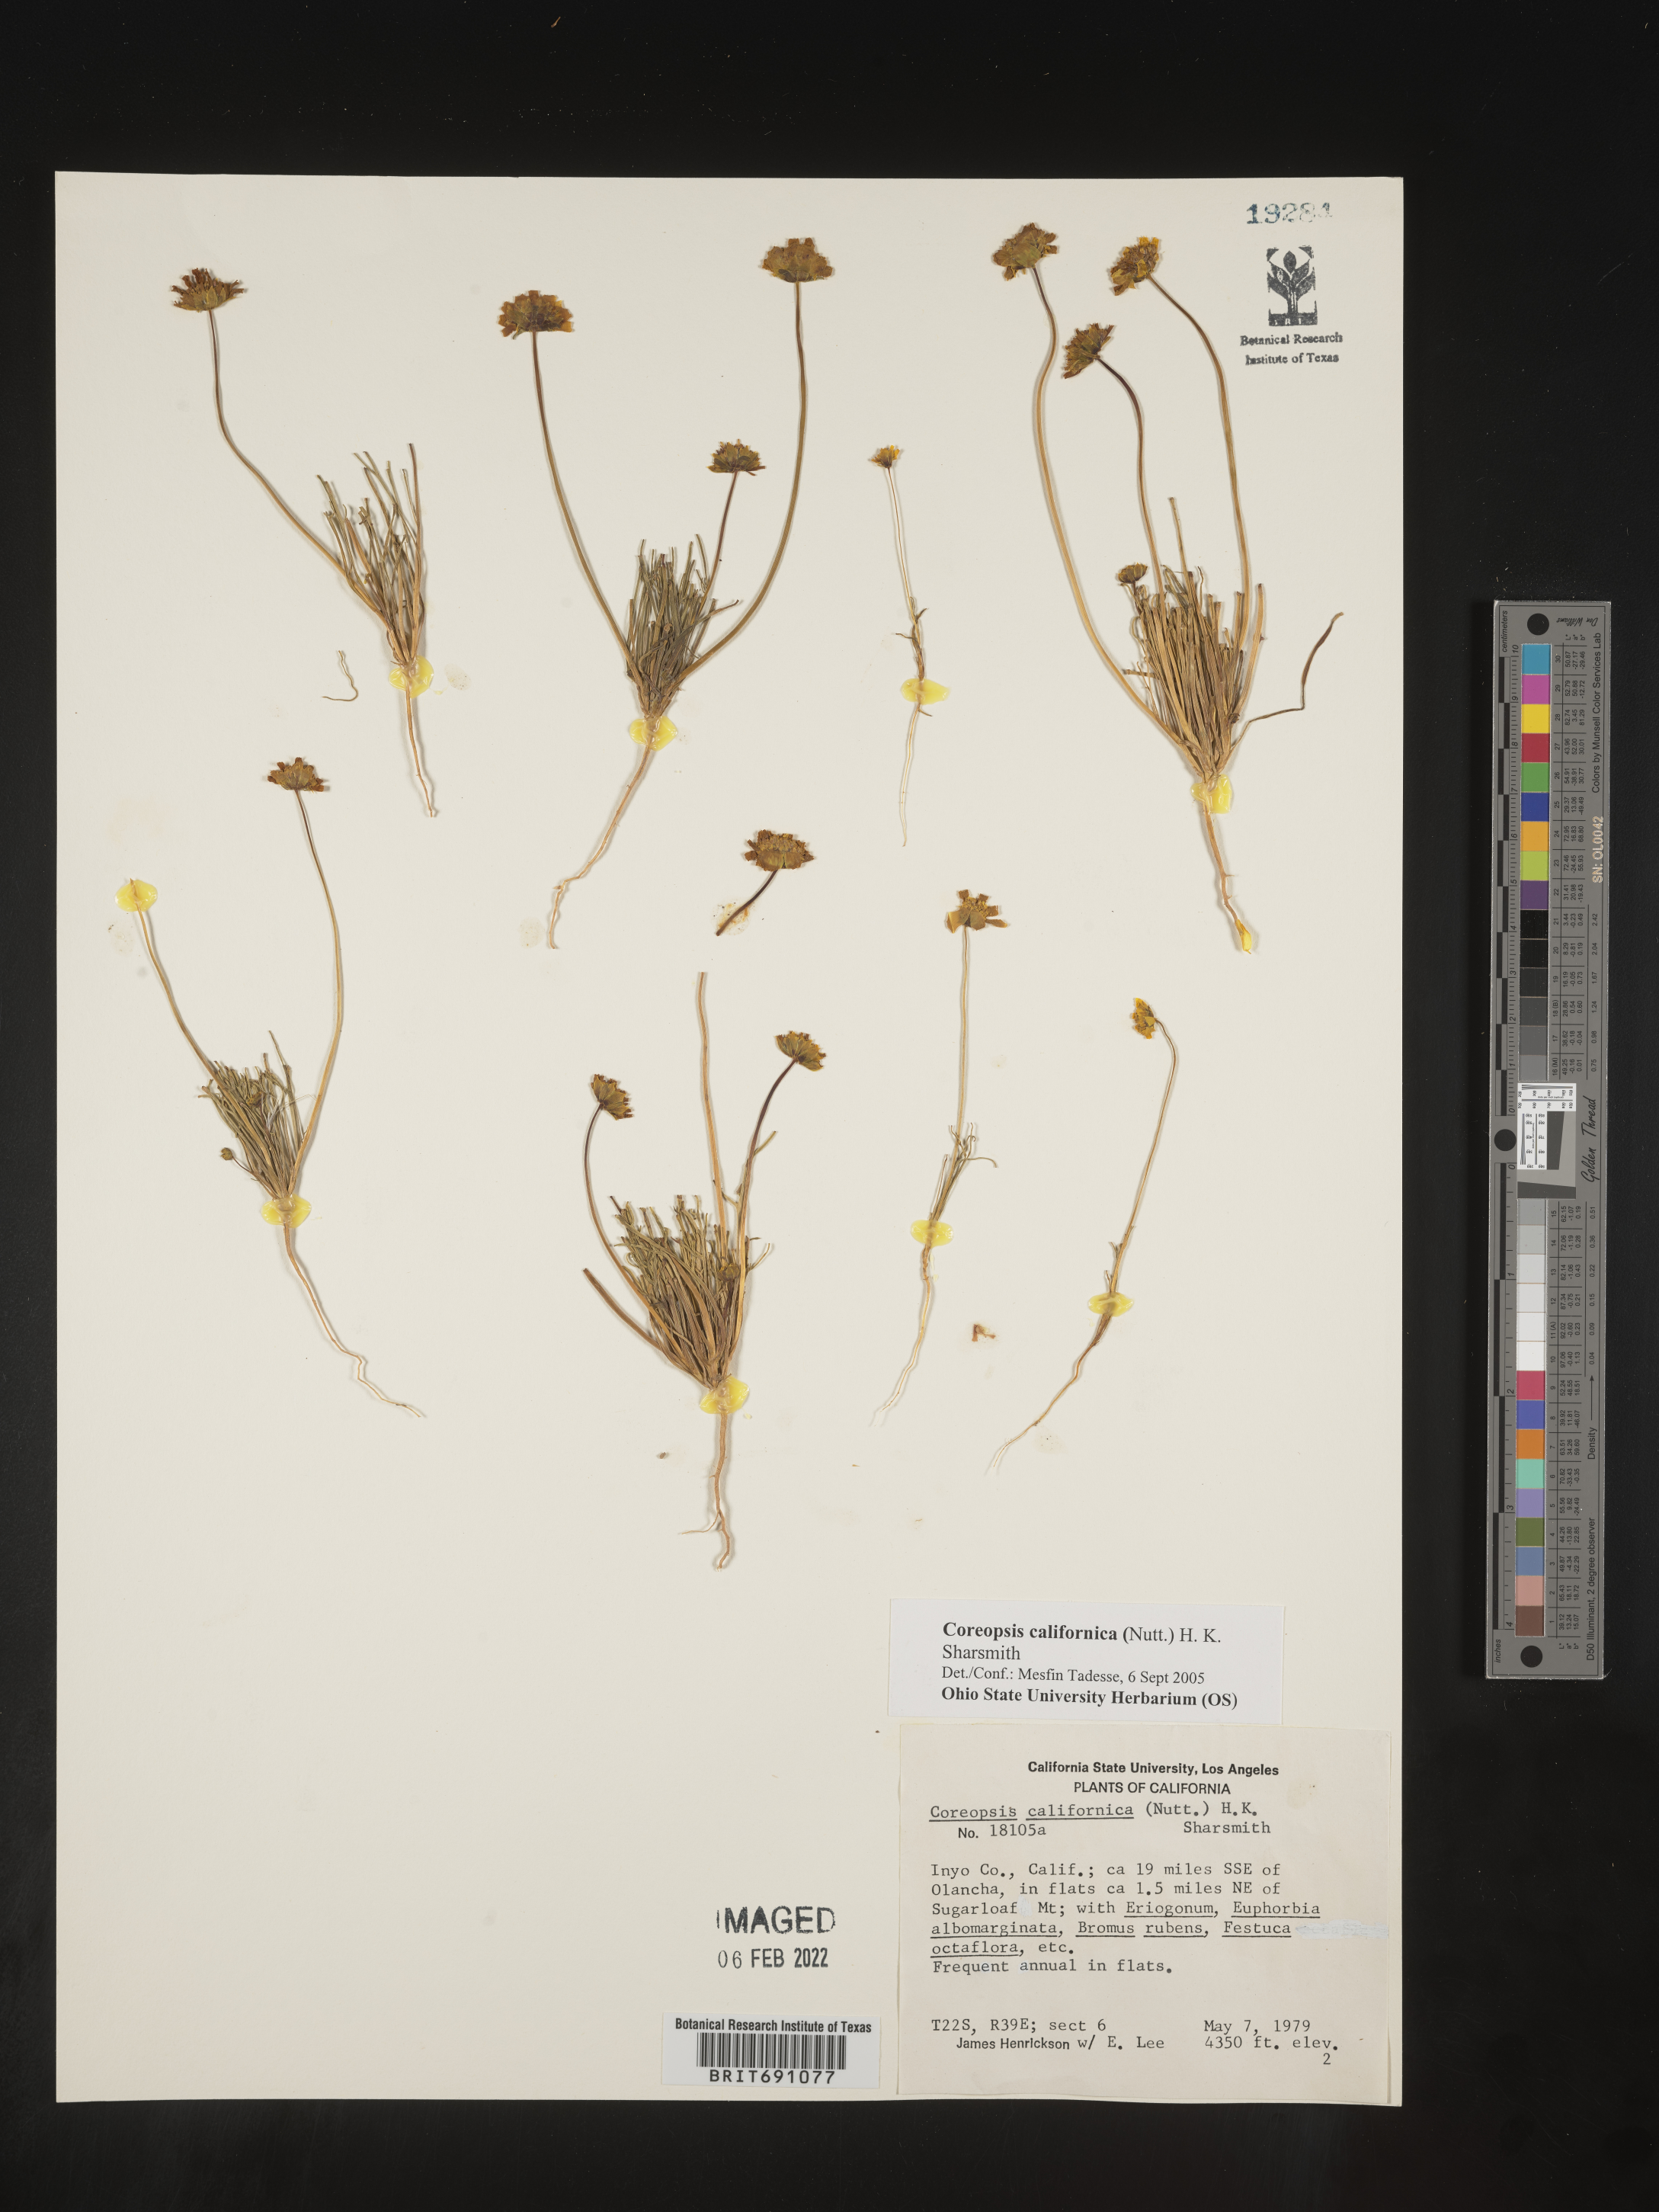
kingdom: Plantae
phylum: Tracheophyta
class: Magnoliopsida
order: Asterales
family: Asteraceae
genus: Coreopsis
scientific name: Coreopsis californica
